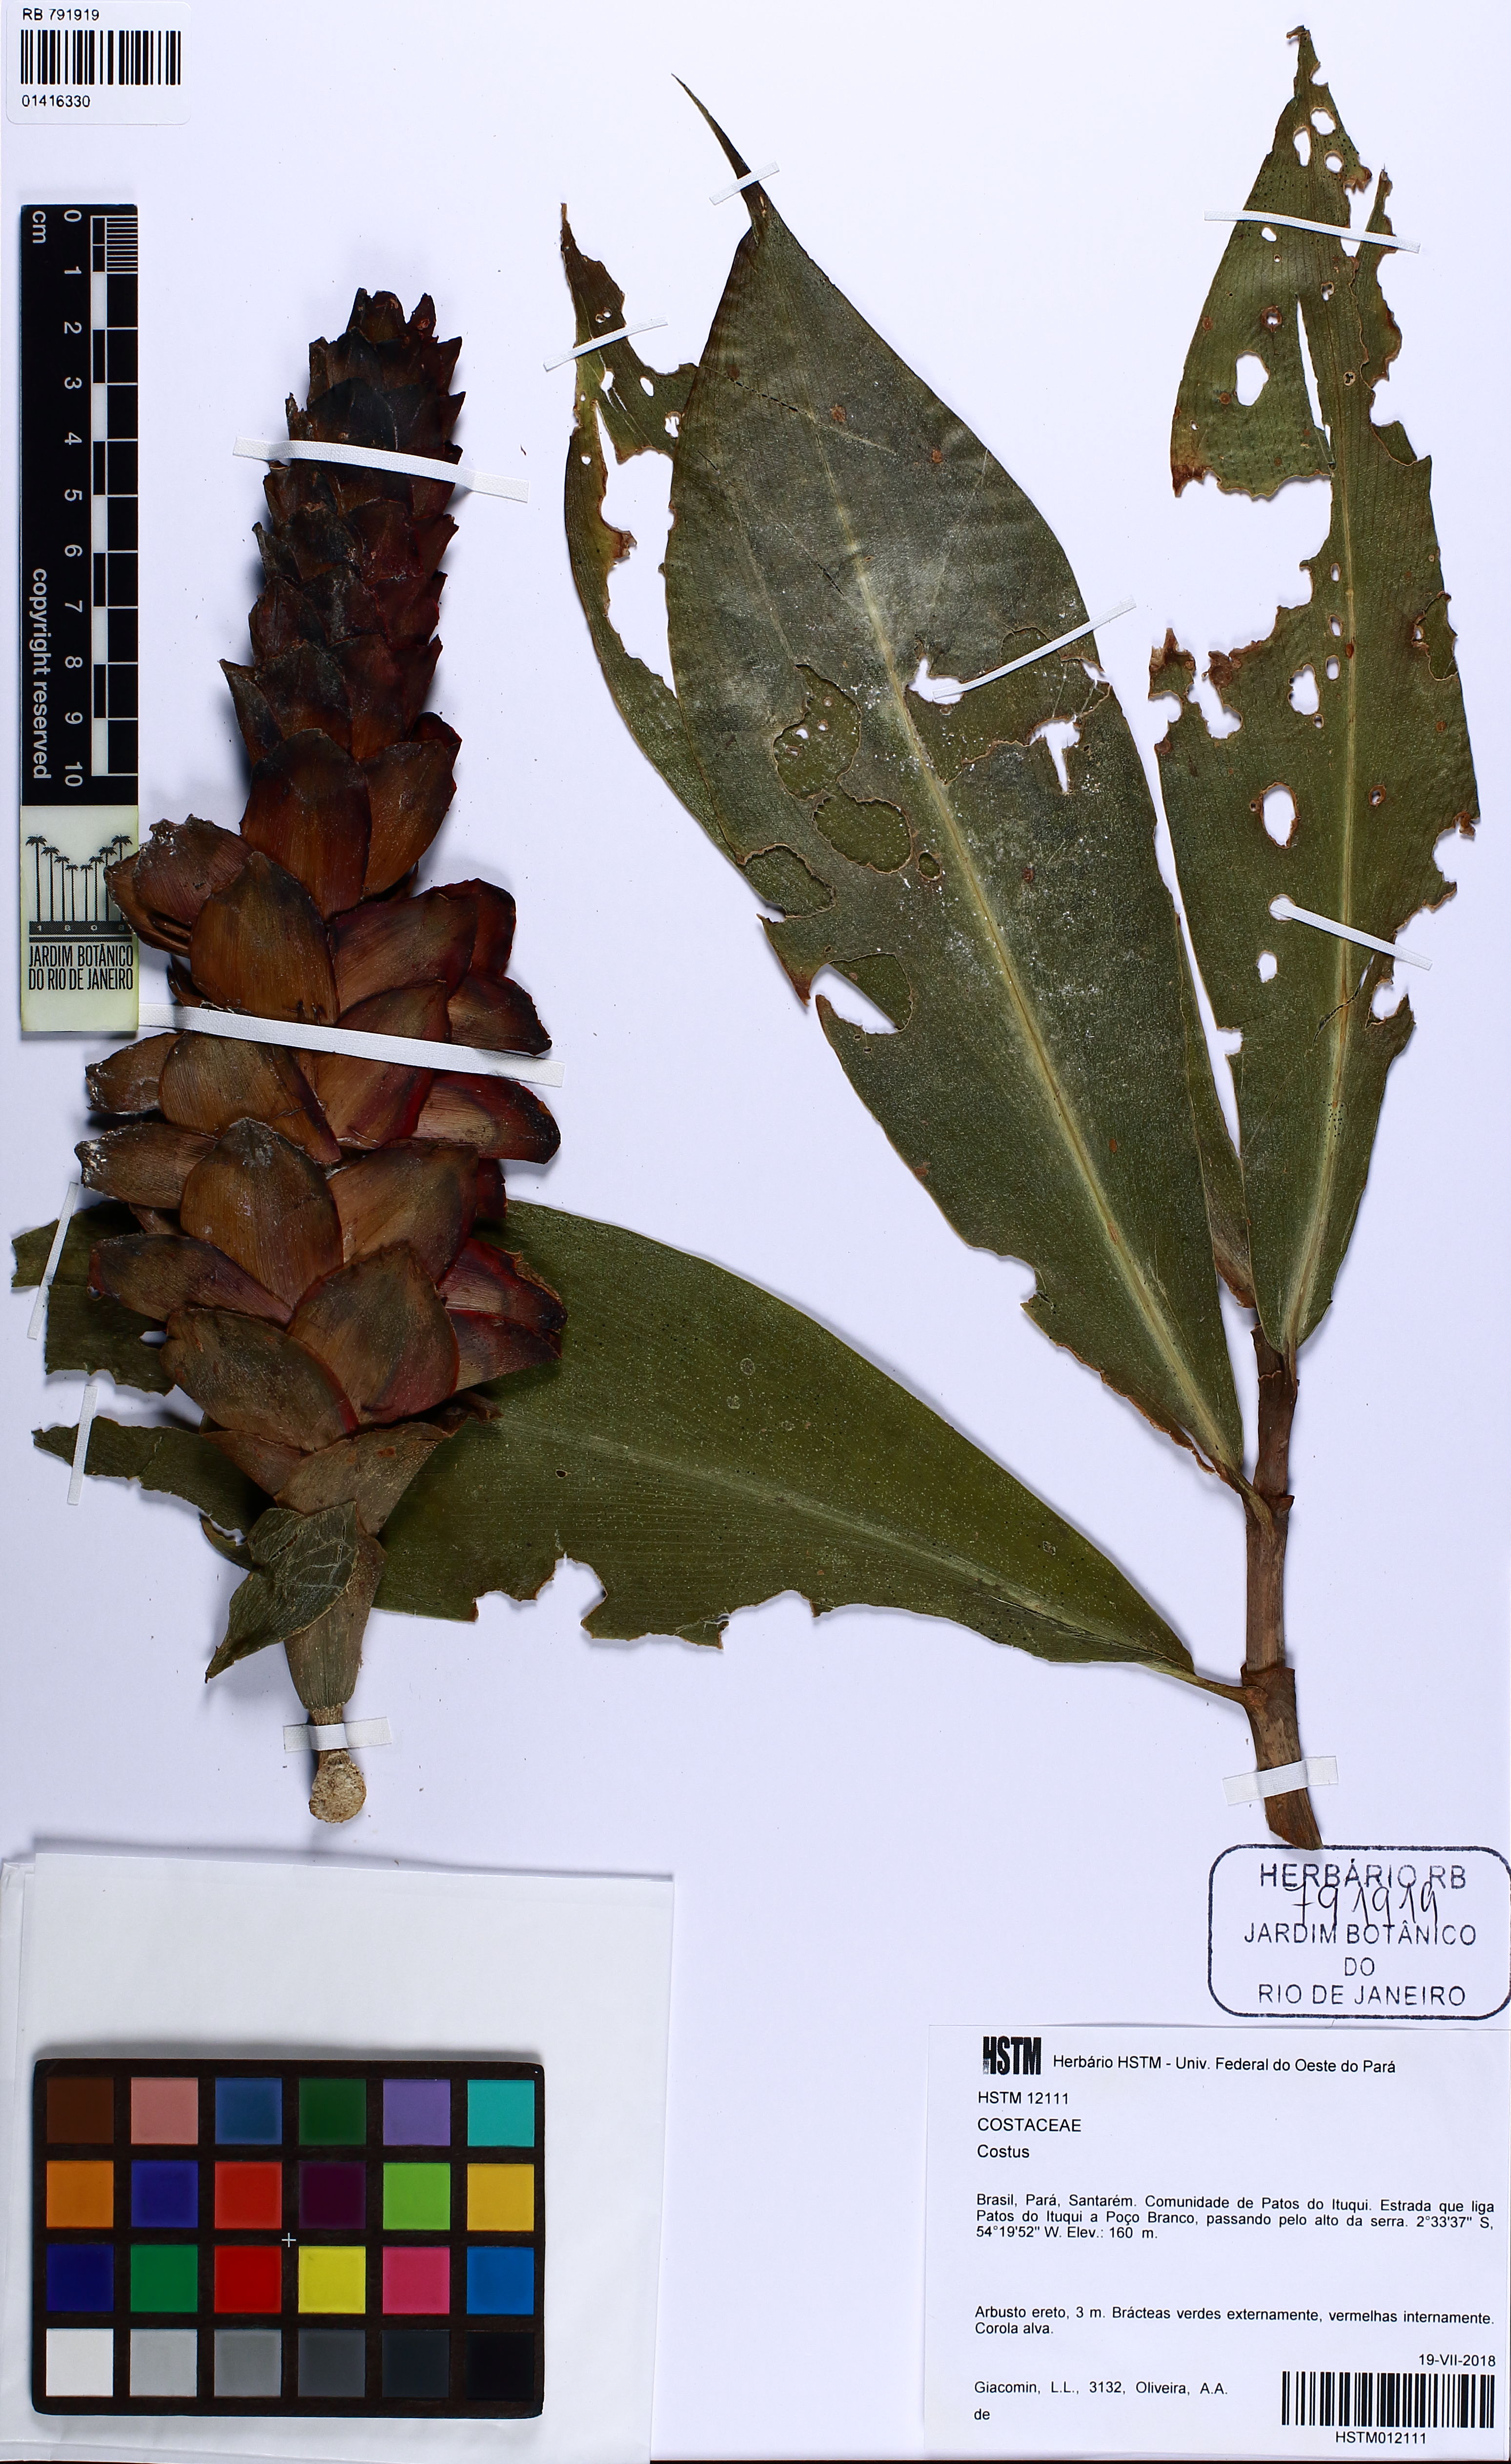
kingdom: Plantae
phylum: Tracheophyta
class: Liliopsida
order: Zingiberales
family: Costaceae
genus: Costus
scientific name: Costus
